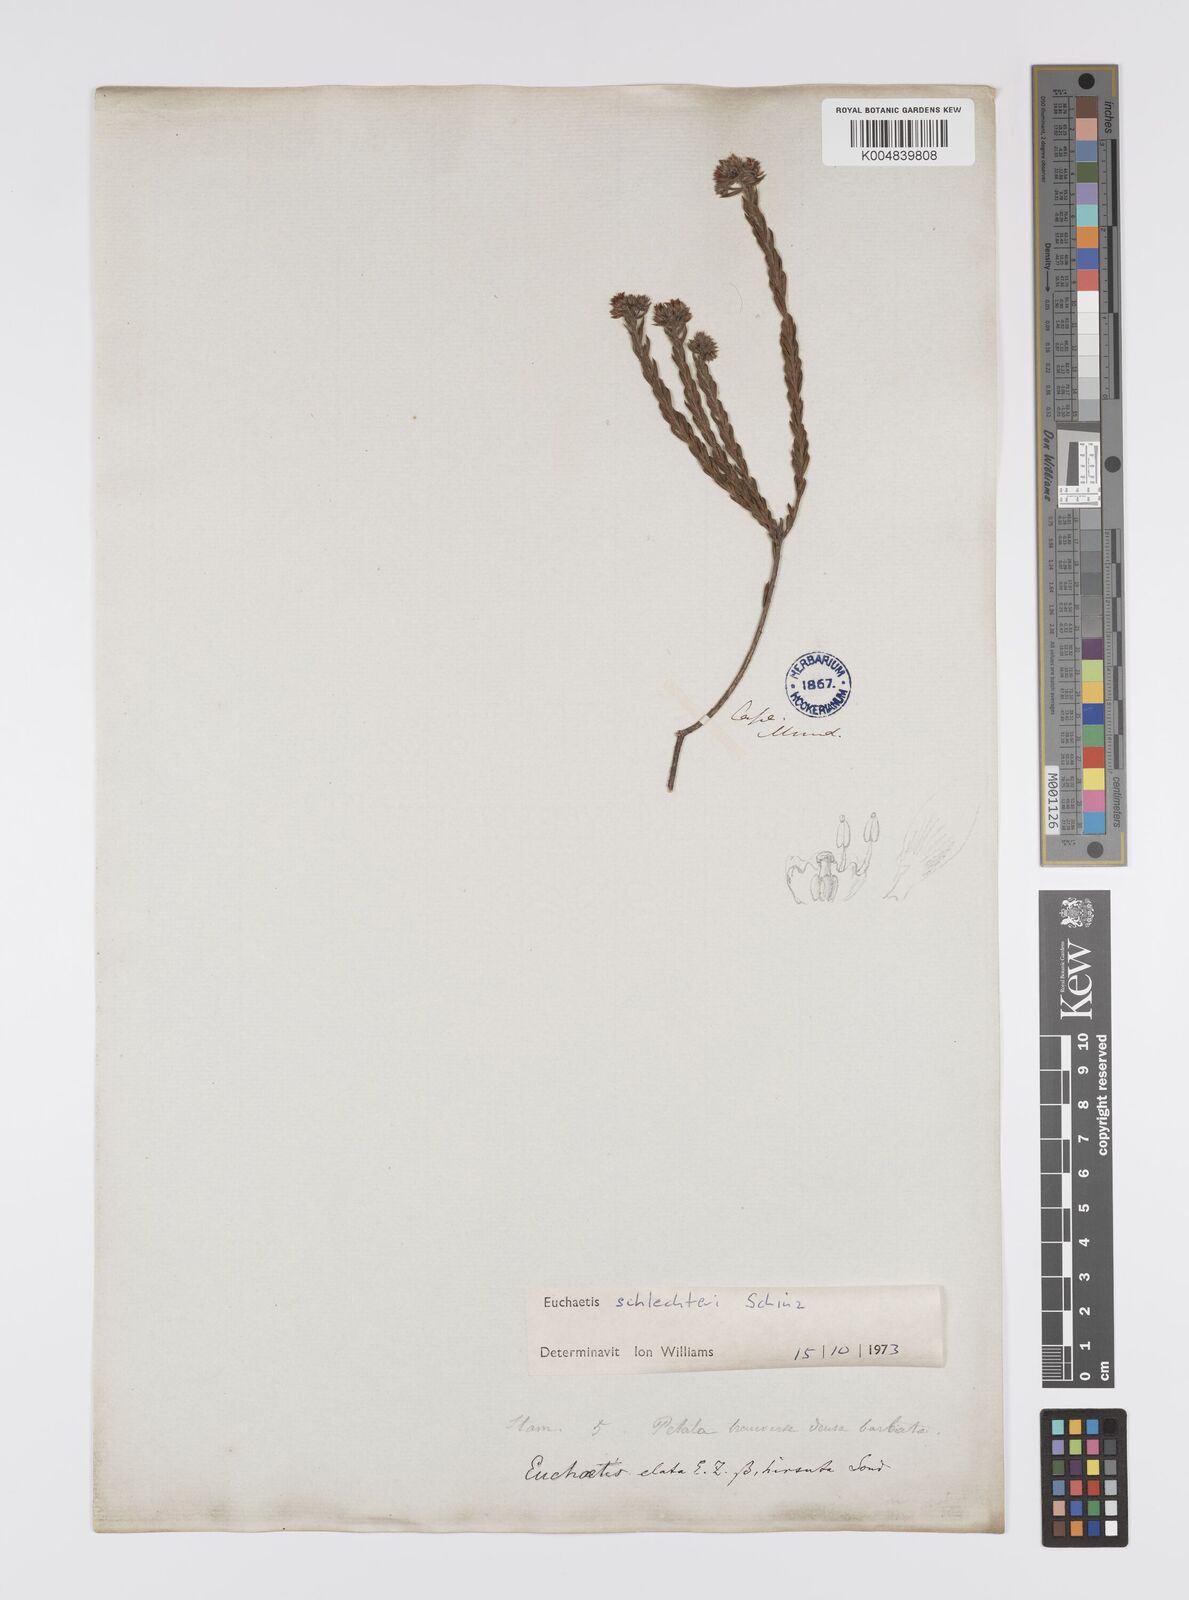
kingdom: Plantae
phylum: Tracheophyta
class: Magnoliopsida
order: Sapindales
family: Rutaceae
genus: Euchaetis
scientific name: Euchaetis schlechteri
